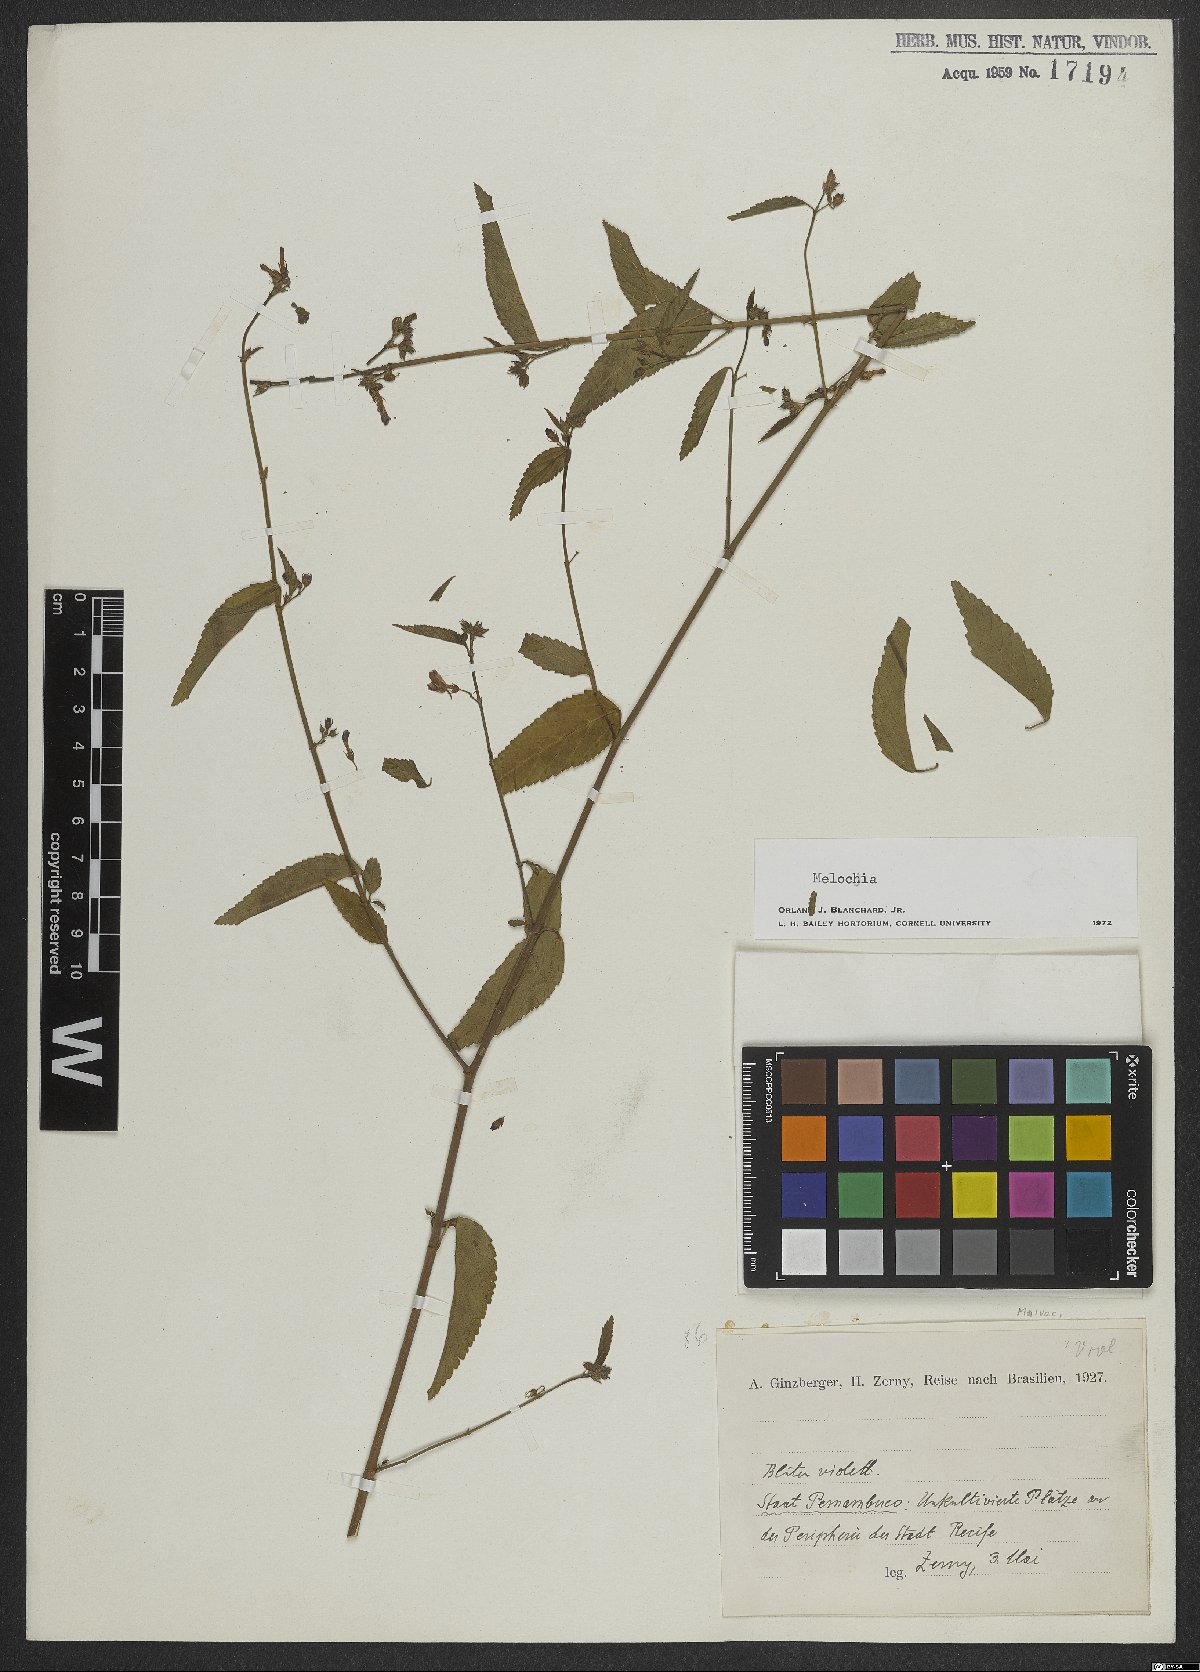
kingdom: Plantae
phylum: Tracheophyta
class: Magnoliopsida
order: Malvales
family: Malvaceae
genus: Melochia
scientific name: Melochia
